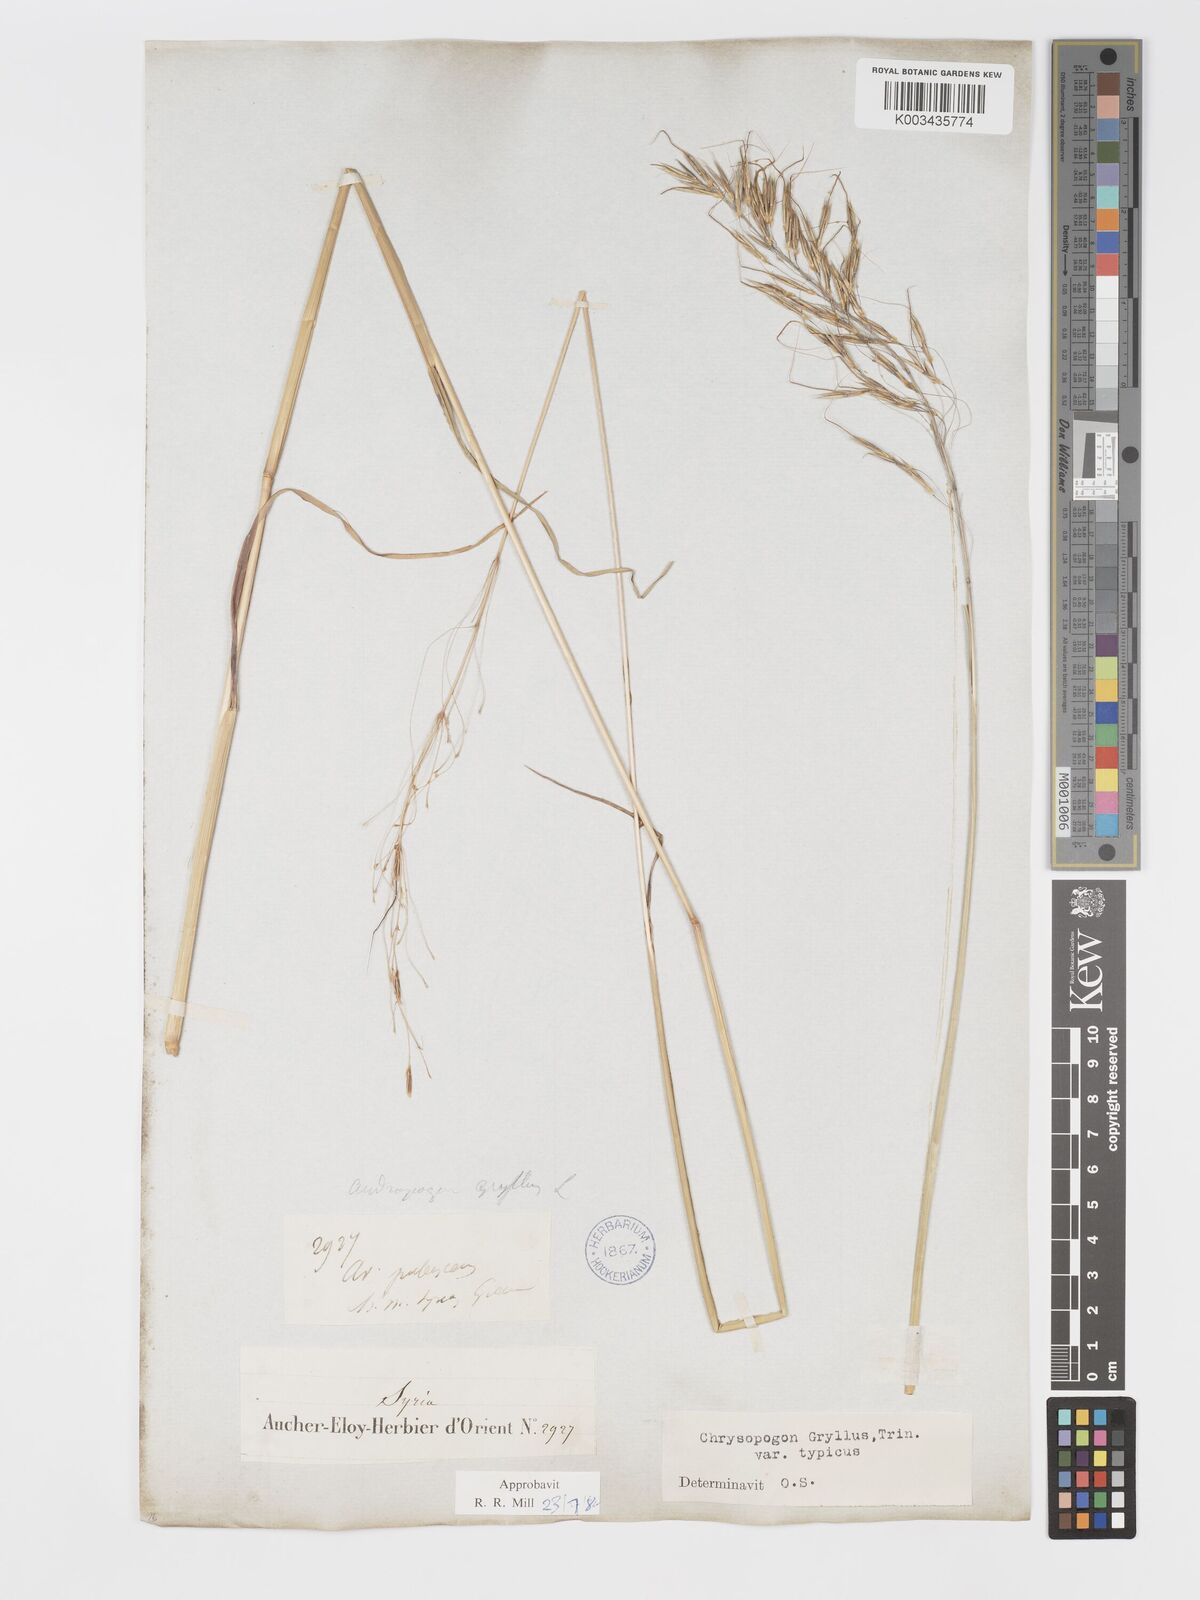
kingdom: Plantae
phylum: Tracheophyta
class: Liliopsida
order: Poales
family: Poaceae
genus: Chrysopogon
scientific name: Chrysopogon gryllus
